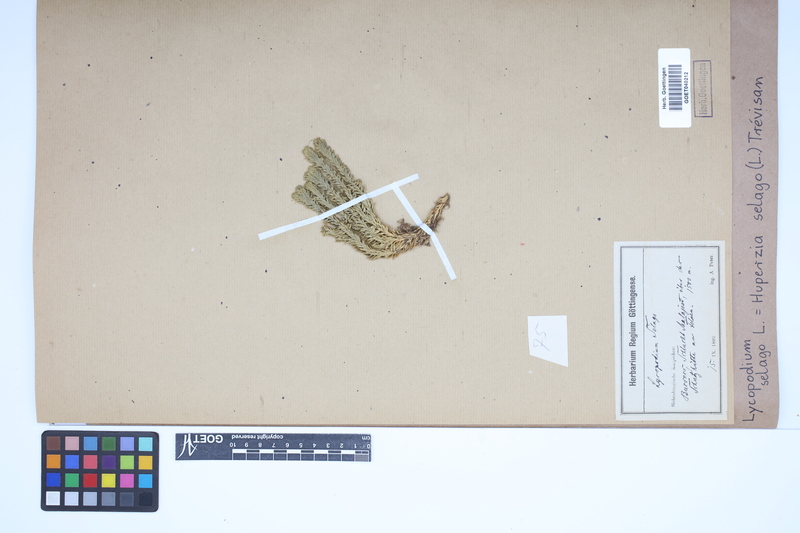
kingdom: Plantae
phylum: Tracheophyta
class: Lycopodiopsida
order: Lycopodiales
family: Lycopodiaceae
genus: Huperzia
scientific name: Huperzia selago
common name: Northern firmoss
